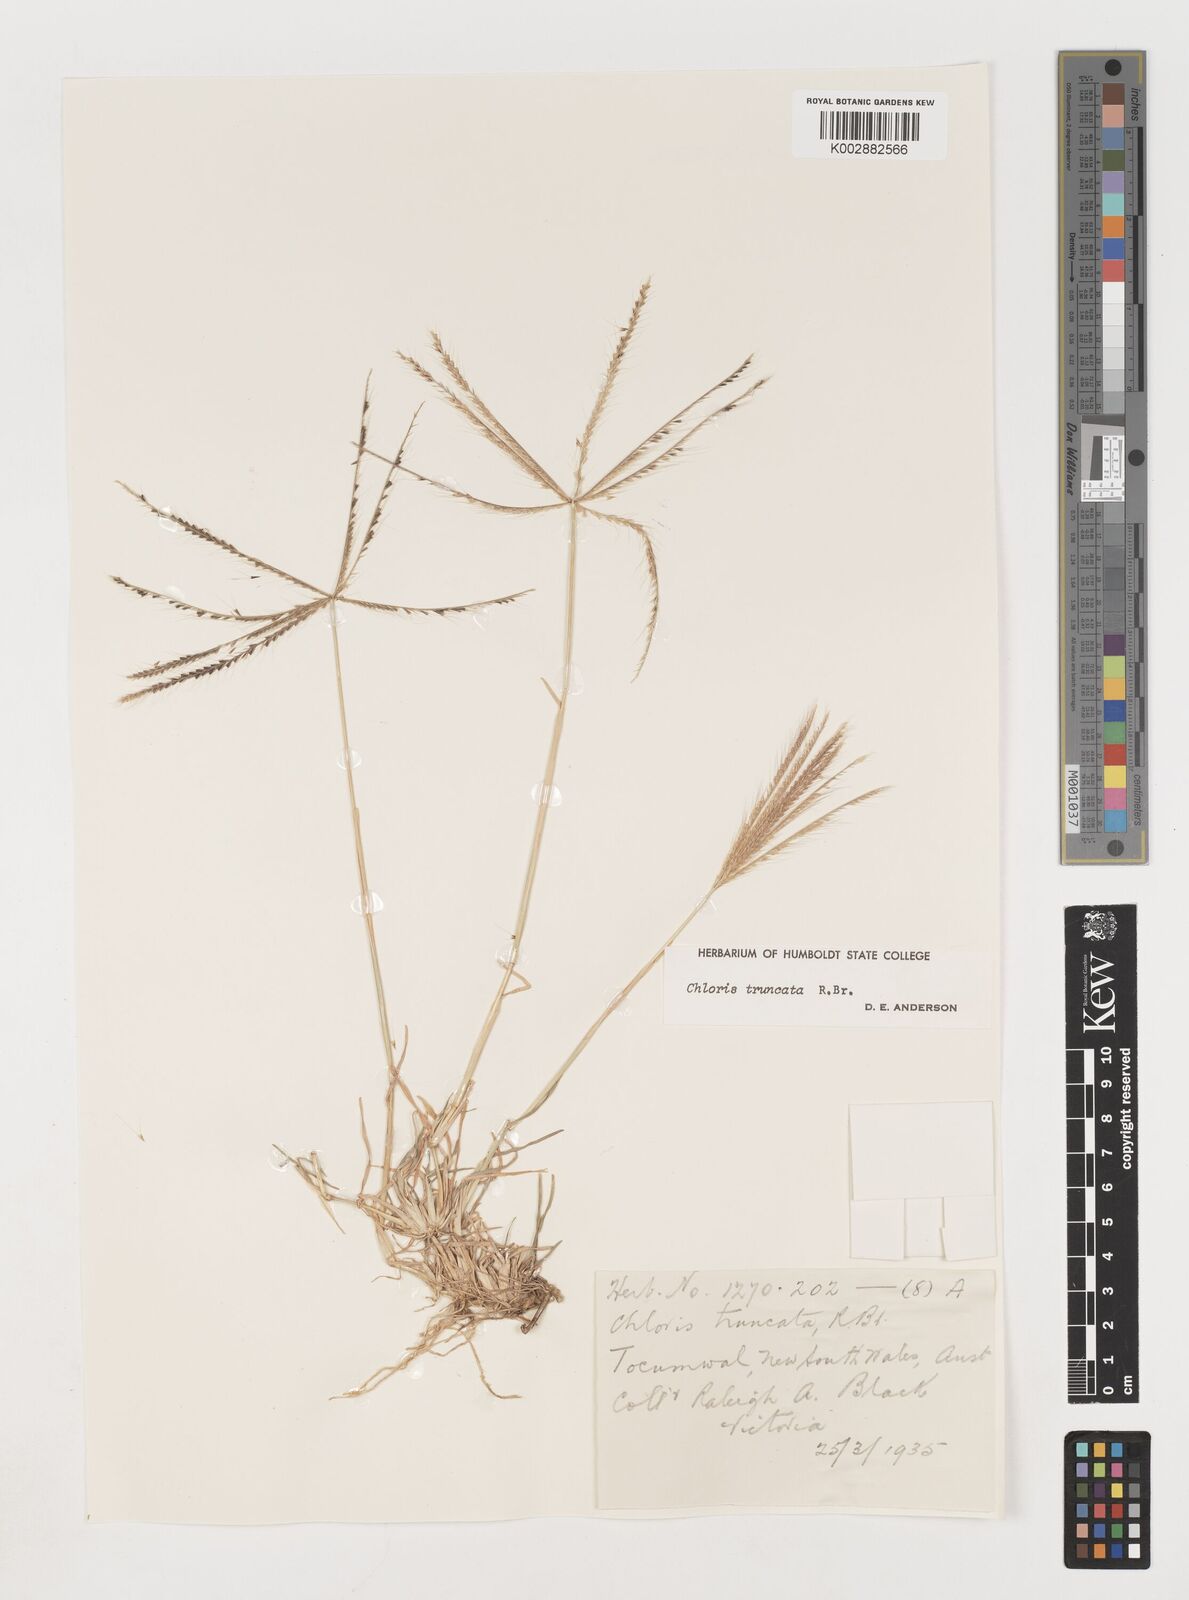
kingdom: Plantae
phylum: Tracheophyta
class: Liliopsida
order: Poales
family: Poaceae
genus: Chloris
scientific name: Chloris truncata
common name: Windmill-grass
